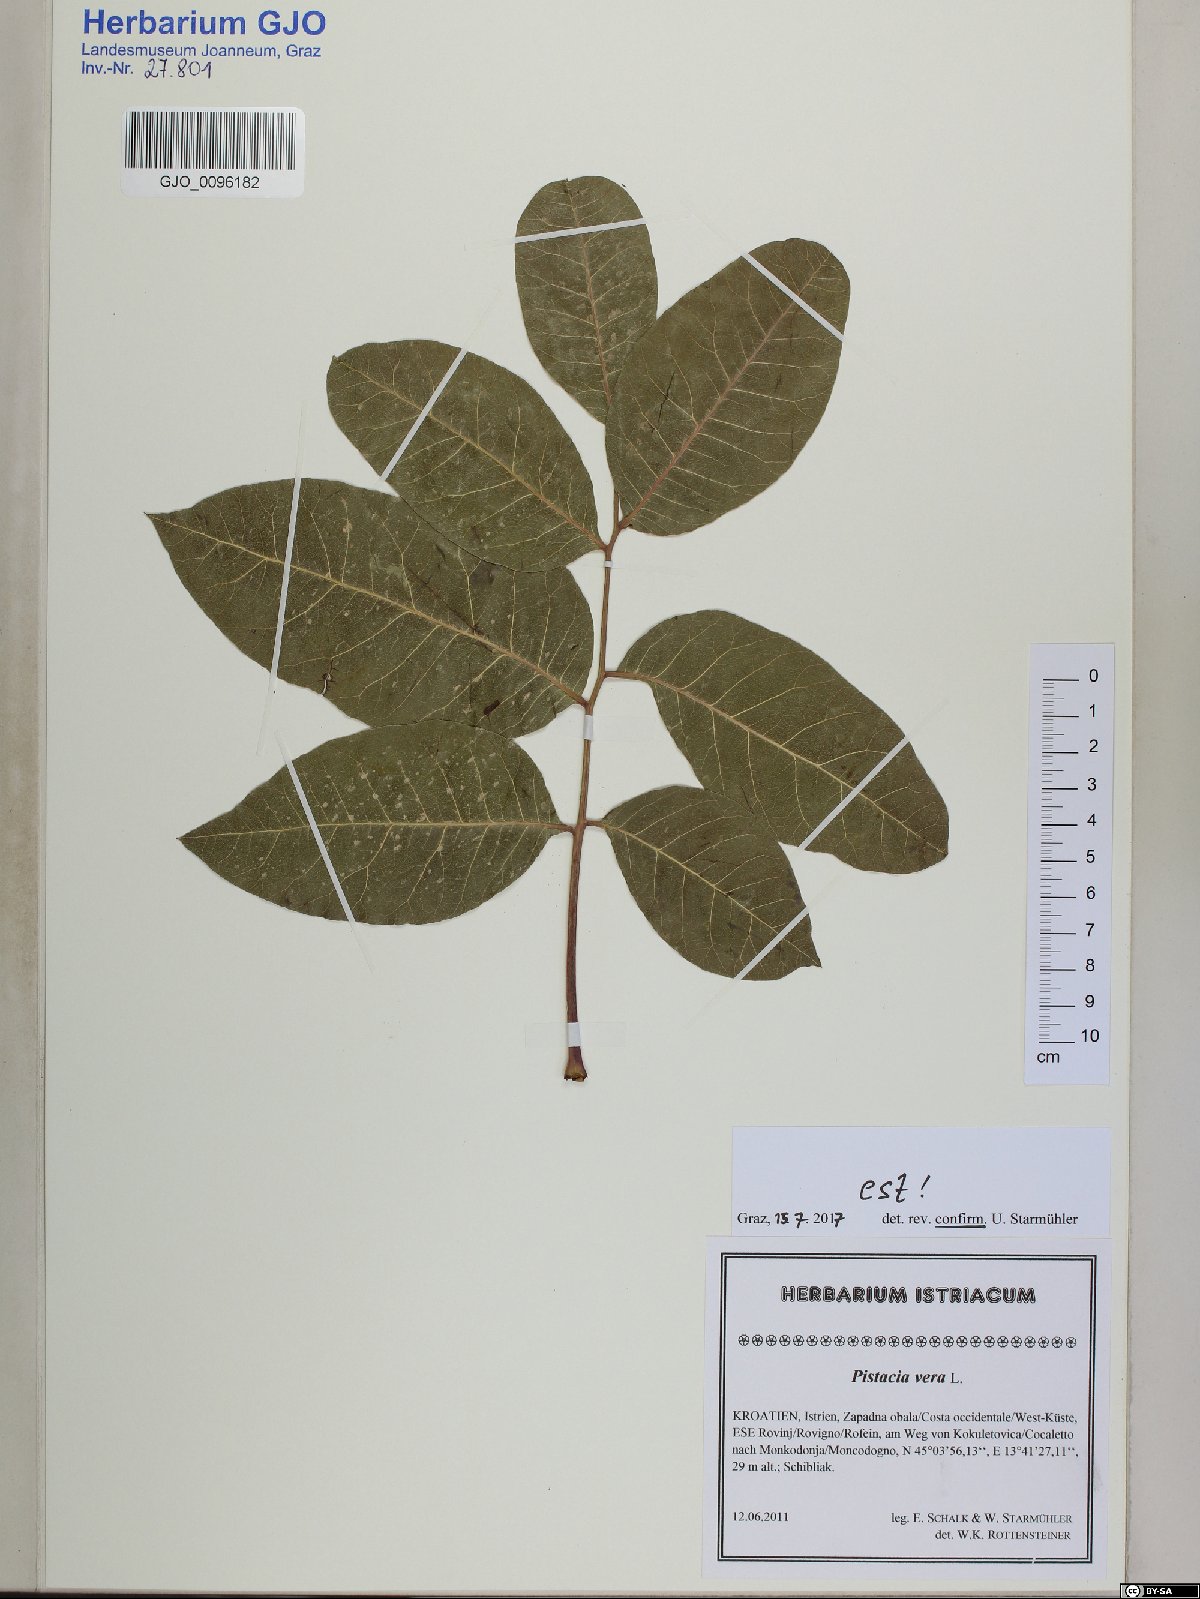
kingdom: Plantae
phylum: Tracheophyta
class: Magnoliopsida
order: Sapindales
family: Anacardiaceae
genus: Pistacia
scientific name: Pistacia vera
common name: Pistachio
